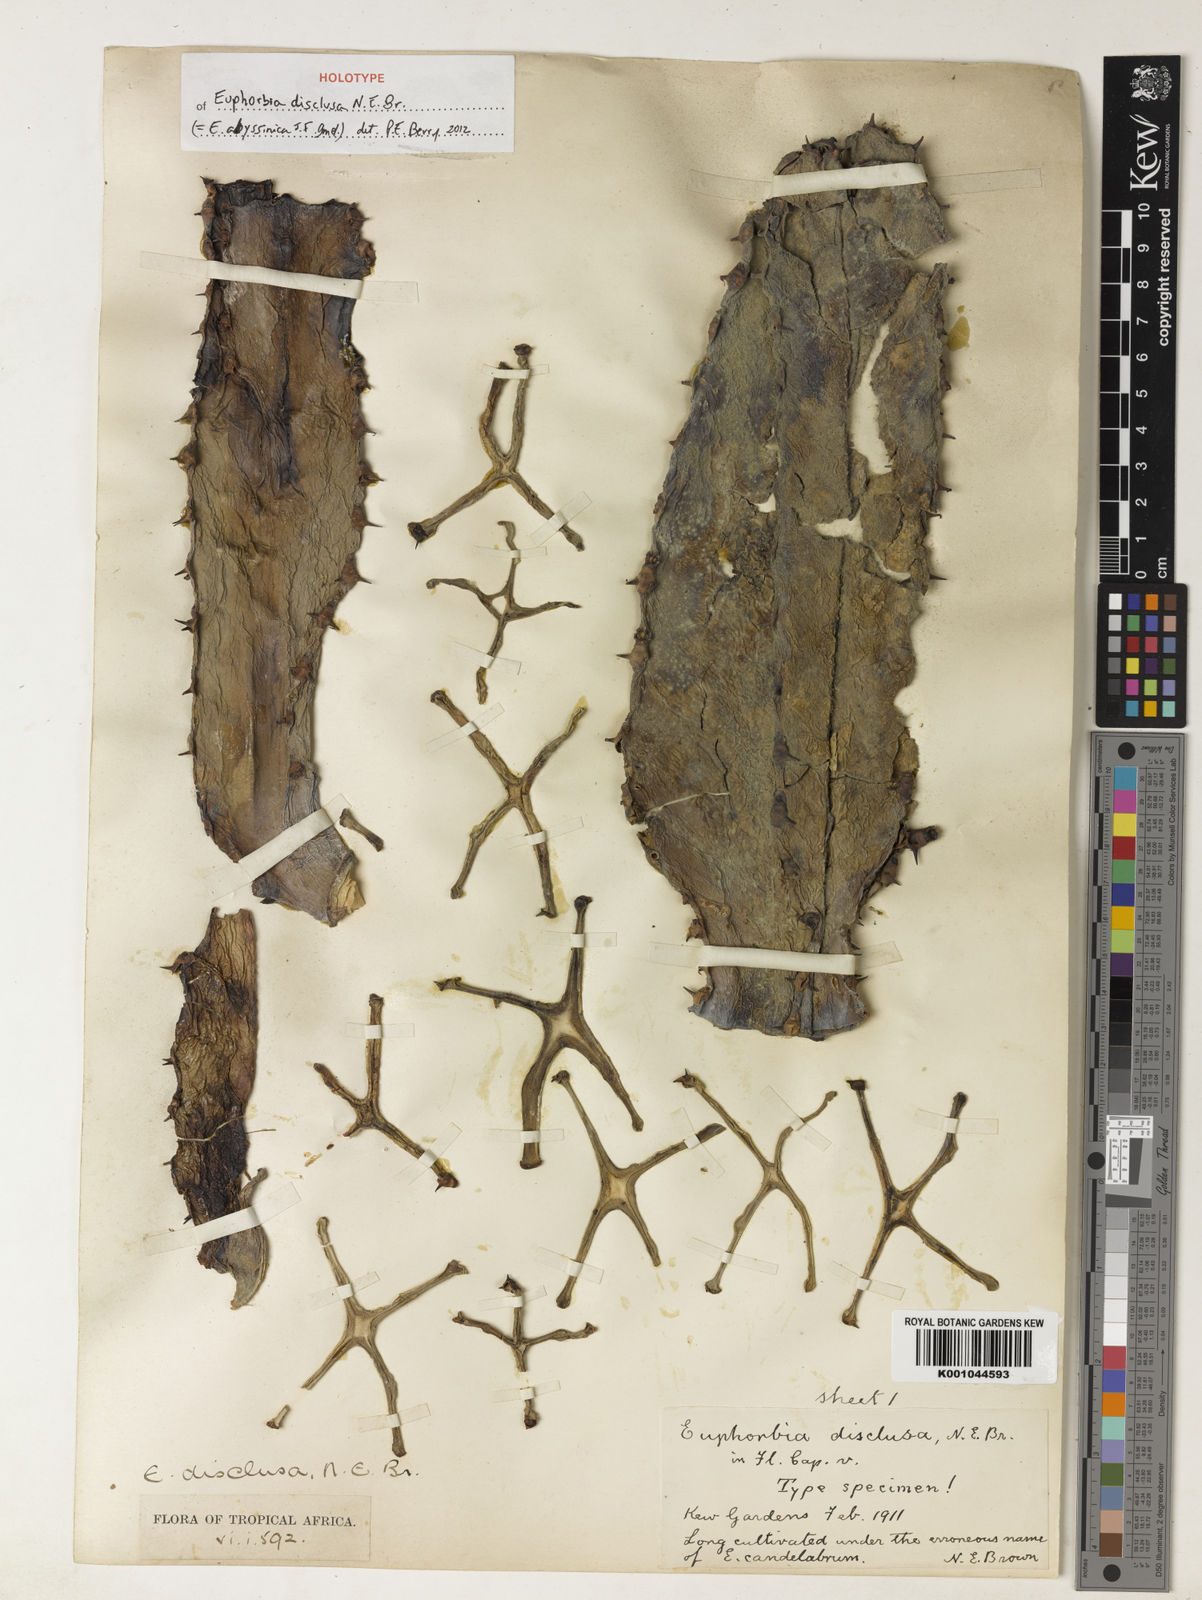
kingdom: Plantae
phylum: Tracheophyta
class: Magnoliopsida
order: Malpighiales
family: Euphorbiaceae
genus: Euphorbia
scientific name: Euphorbia abyssinica
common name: Abyssinian spurge
